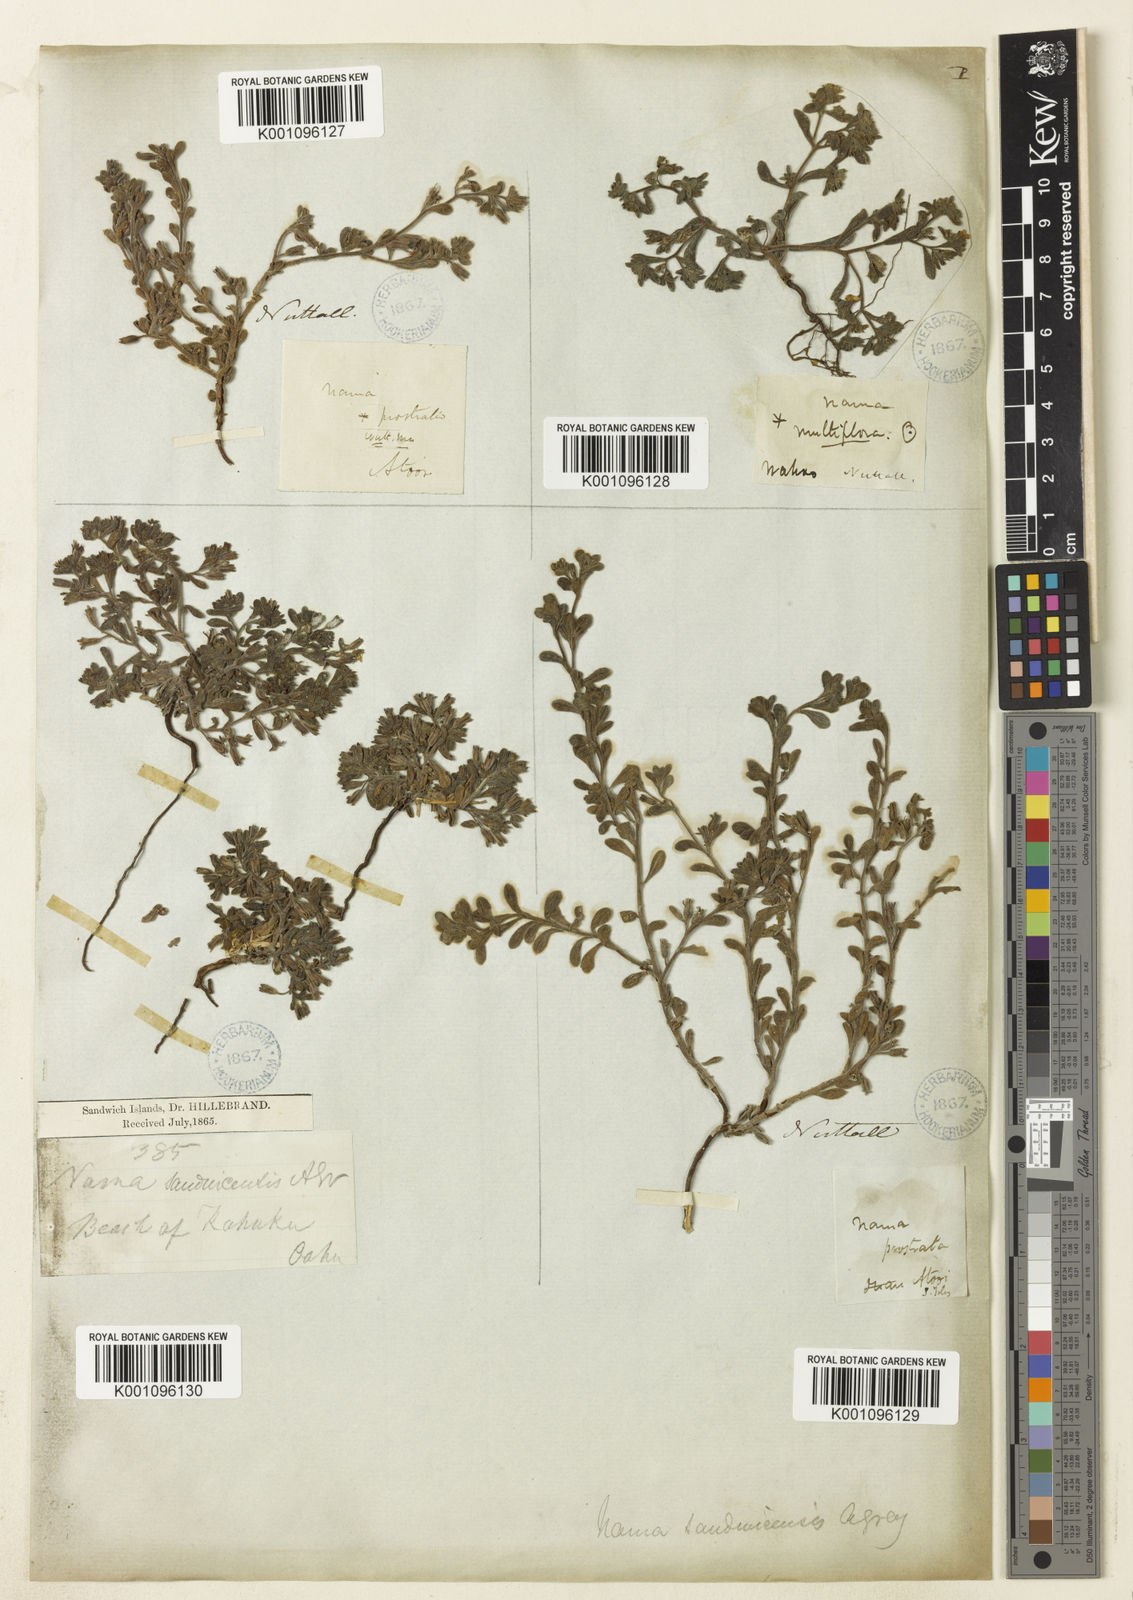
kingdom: Plantae
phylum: Tracheophyta
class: Magnoliopsida
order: Boraginales
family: Namaceae
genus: Nama
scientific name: Nama sandwicense
